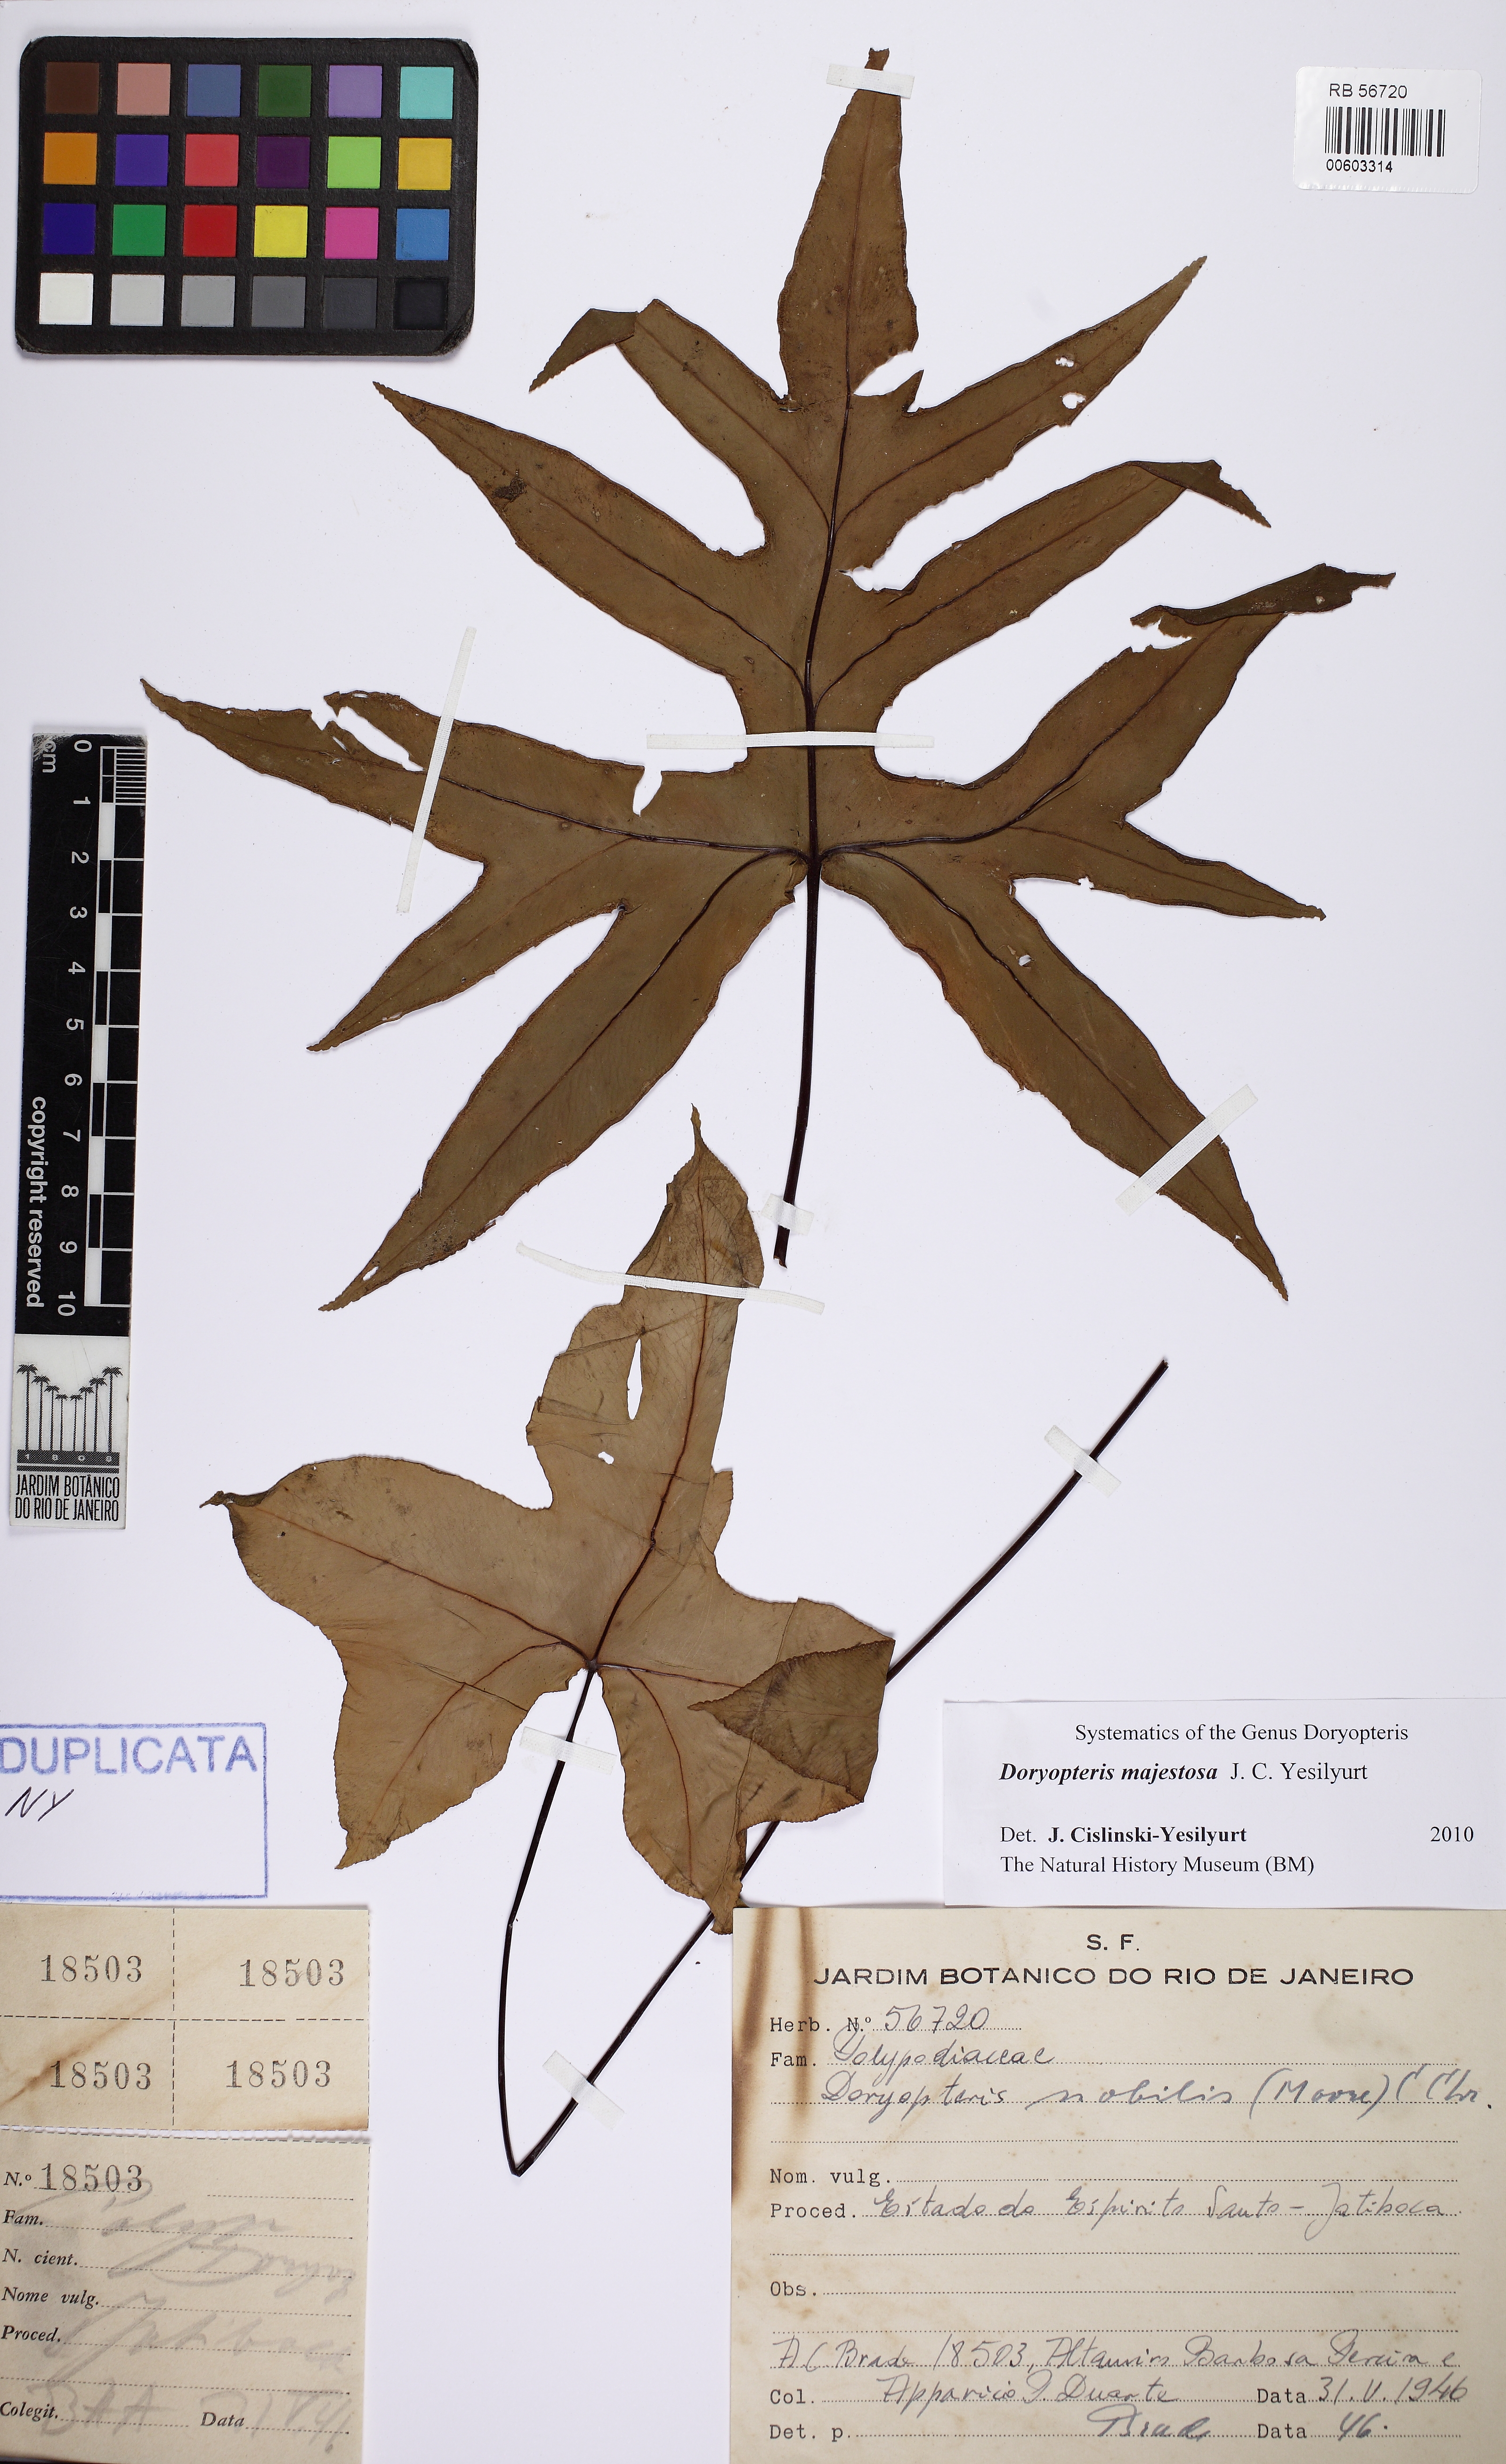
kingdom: Plantae
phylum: Tracheophyta
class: Polypodiopsida
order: Polypodiales
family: Pteridaceae
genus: Hemionitis
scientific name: Hemionitis Doryopteris patula
